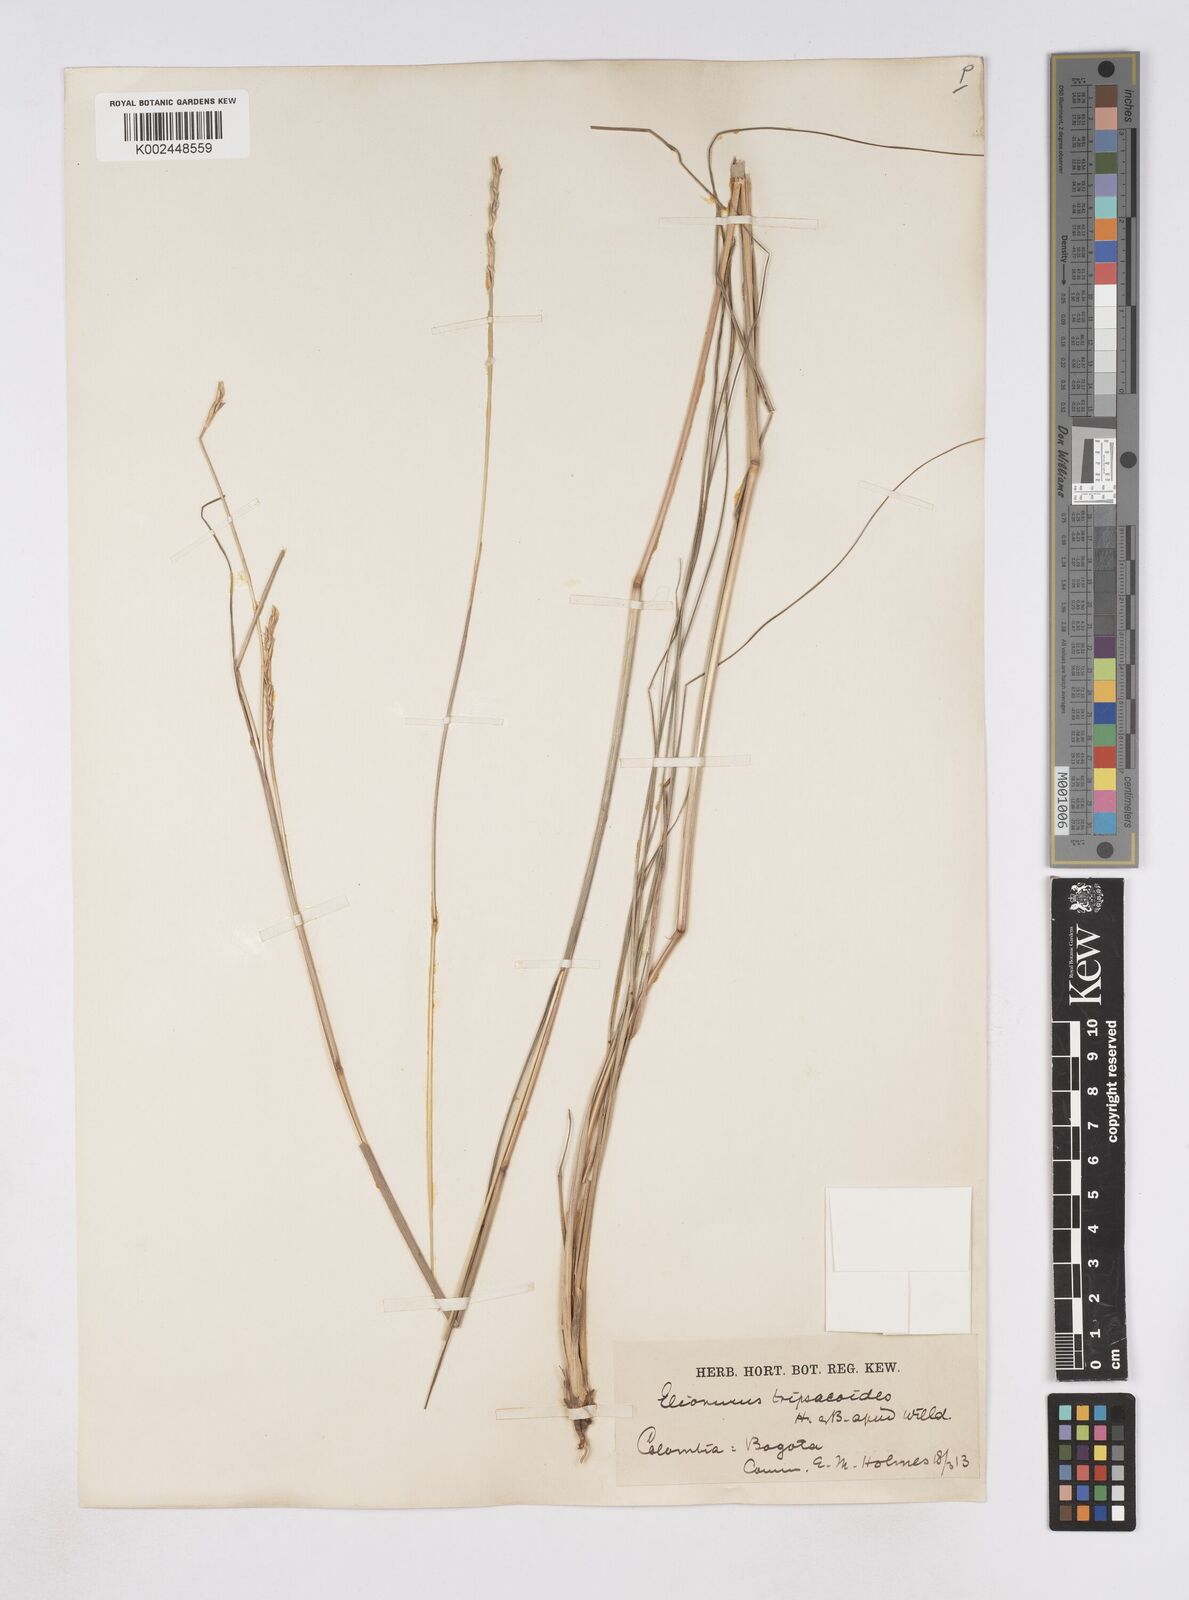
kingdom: Plantae
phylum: Tracheophyta
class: Liliopsida
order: Poales
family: Poaceae
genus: Elionurus
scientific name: Elionurus tripsacoides
